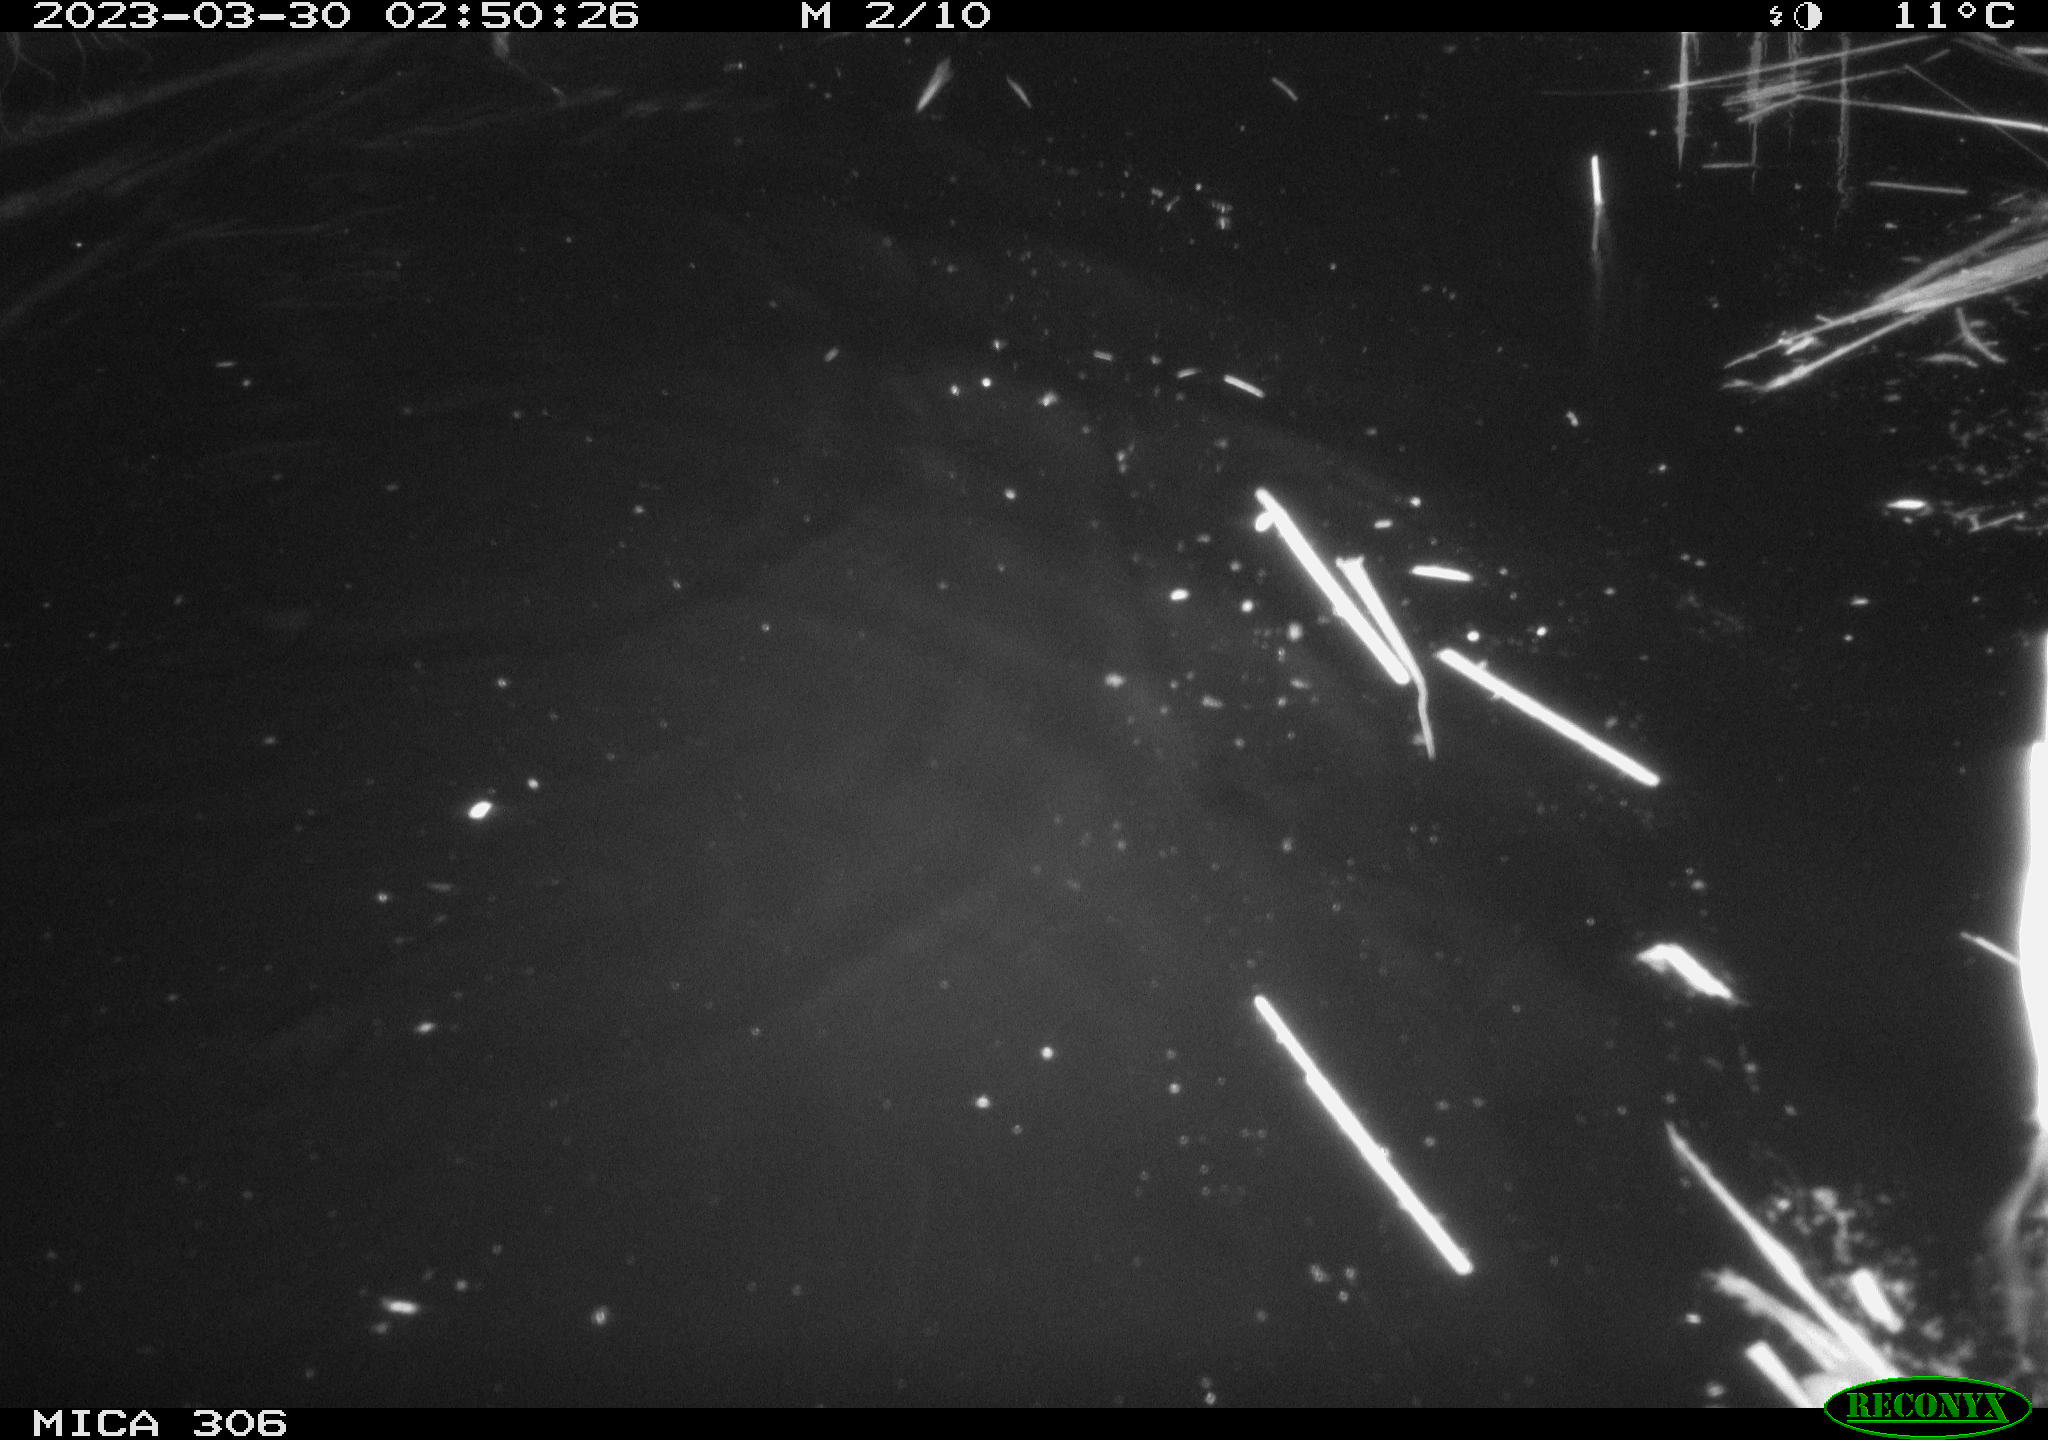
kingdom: Animalia
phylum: Chordata
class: Mammalia
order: Rodentia
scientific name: Rodentia
